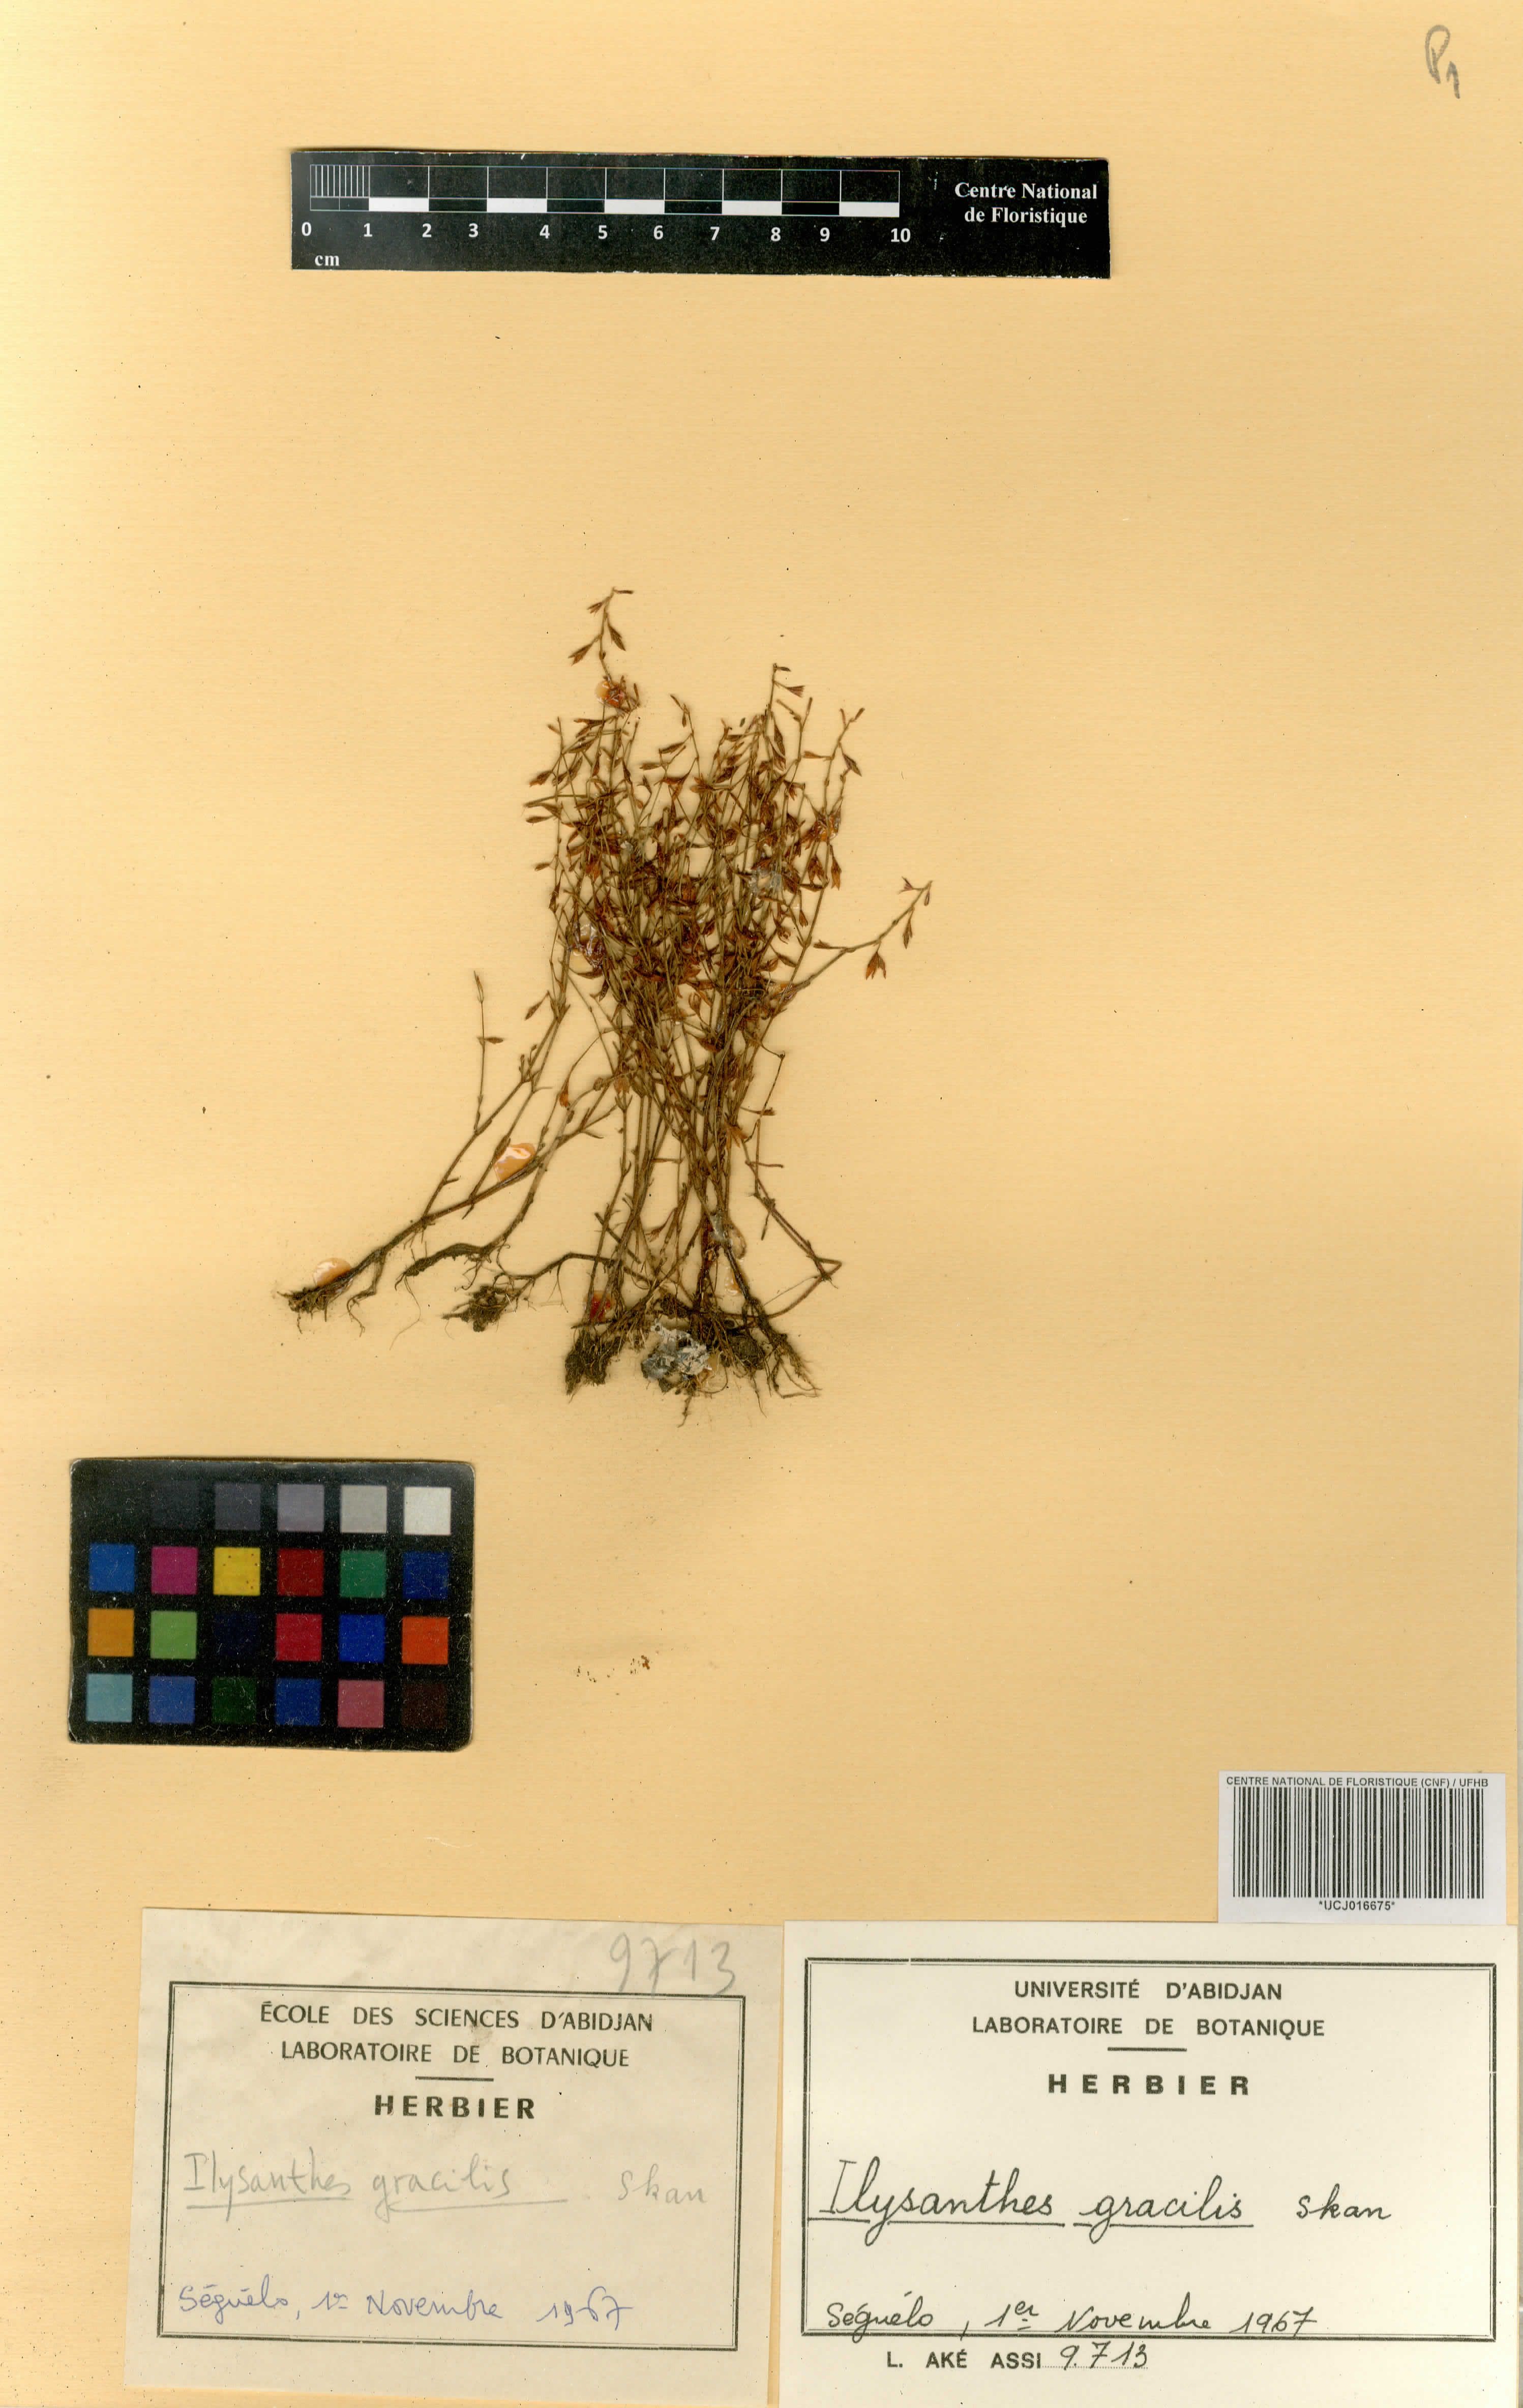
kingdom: Plantae
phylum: Tracheophyta
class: Magnoliopsida
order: Lamiales
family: Linderniaceae
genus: Linderniella
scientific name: Linderniella gracilis
